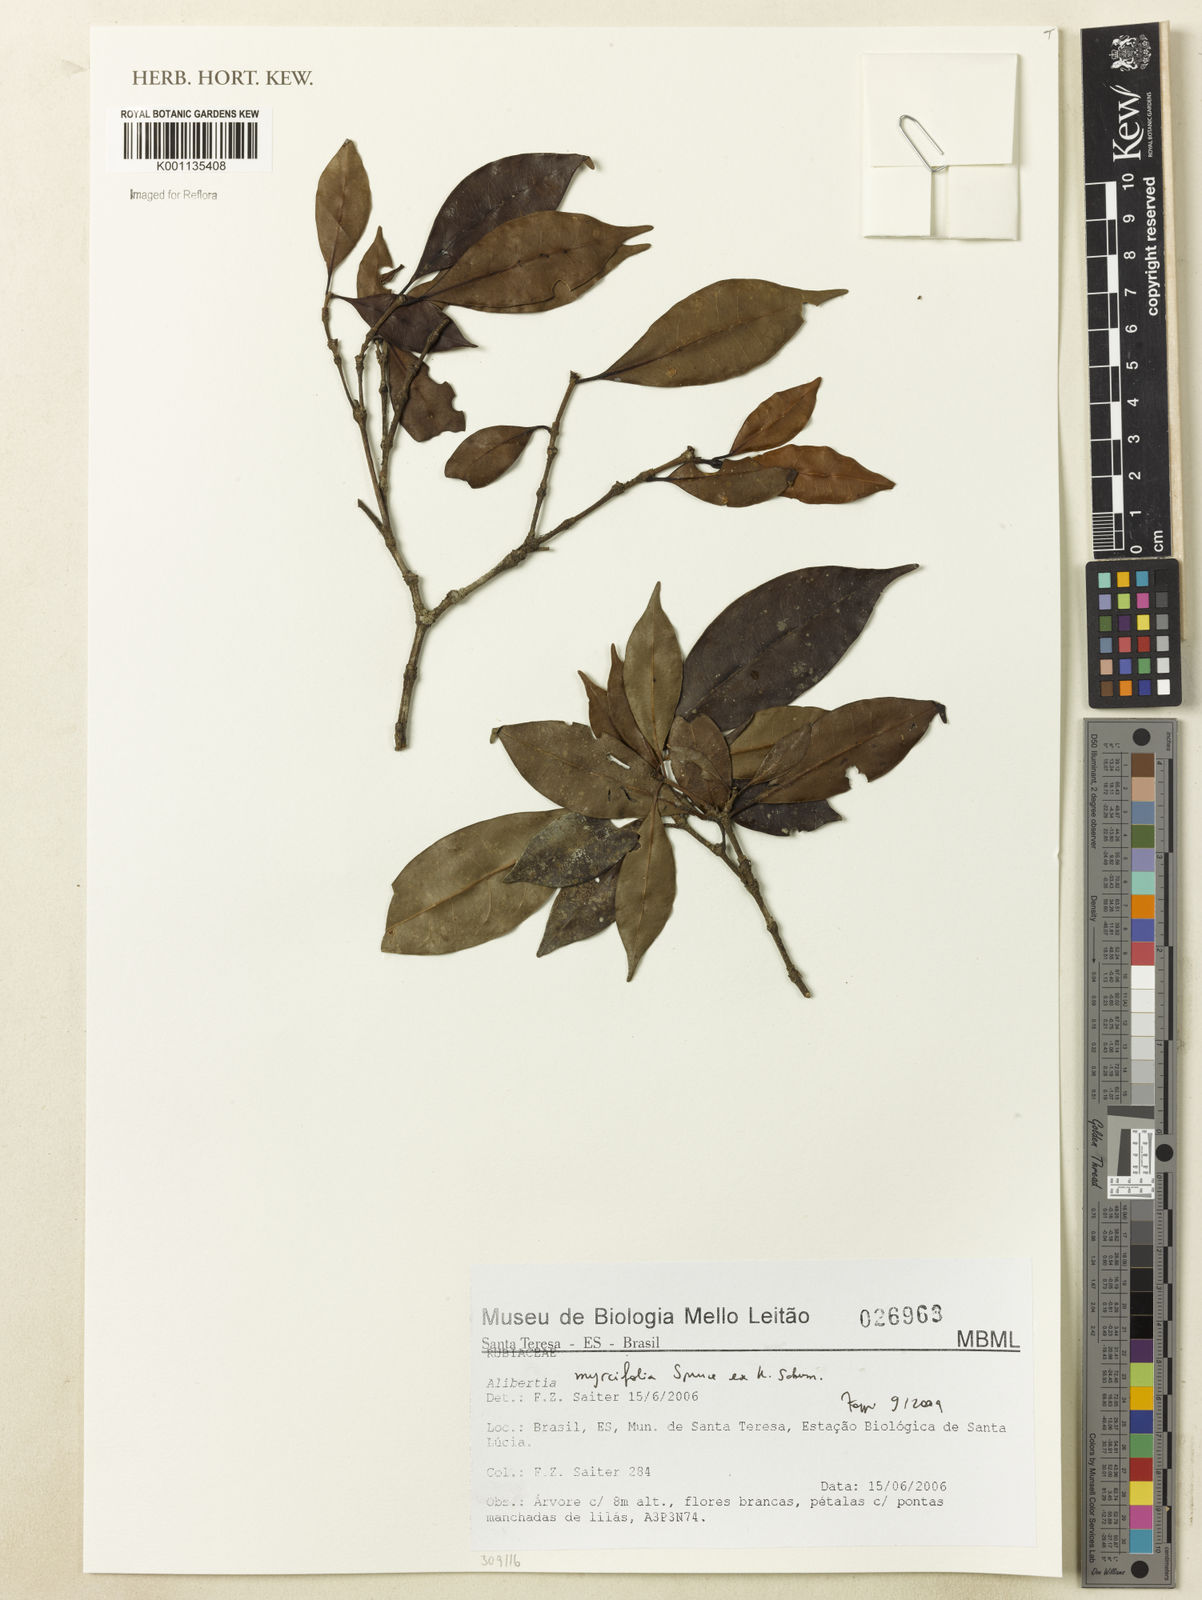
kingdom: Plantae
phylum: Tracheophyta
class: Magnoliopsida
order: Gentianales
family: Rubiaceae
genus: Cordiera
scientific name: Cordiera myrciifolia
